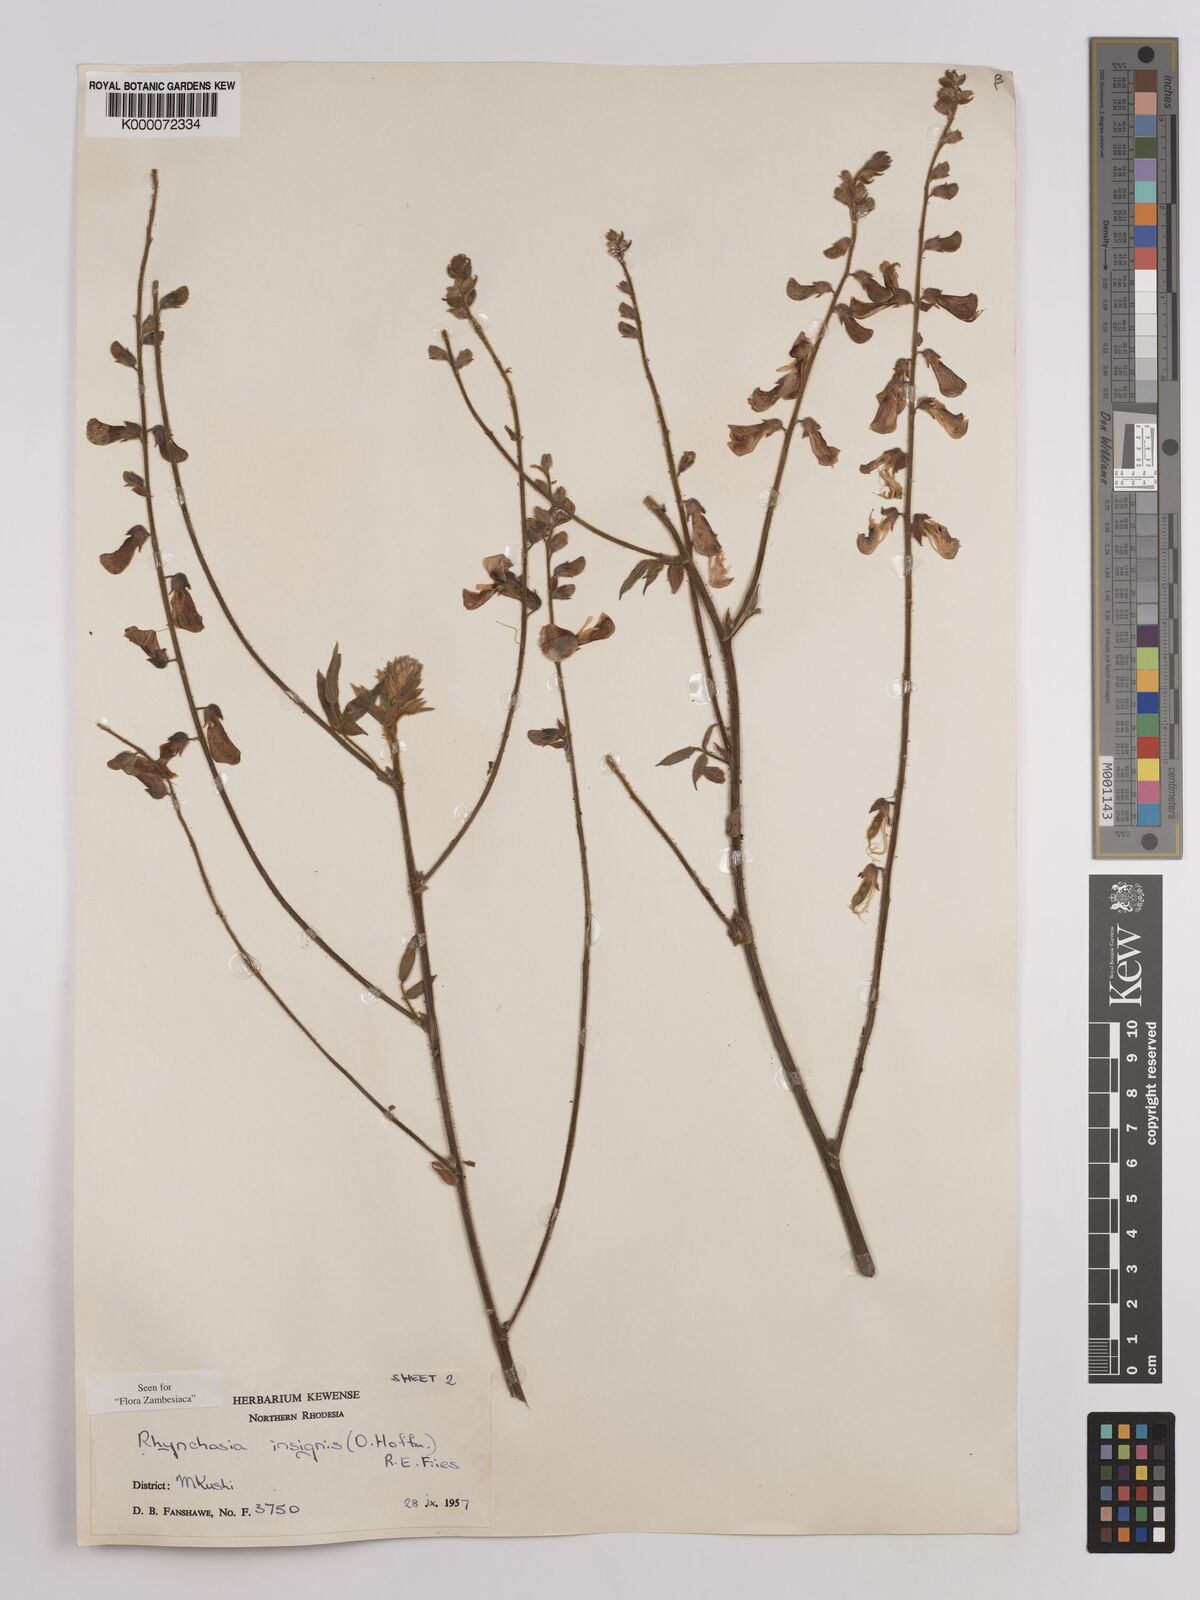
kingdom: Plantae
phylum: Tracheophyta
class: Magnoliopsida
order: Fabales
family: Fabaceae
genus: Rhynchosia
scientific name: Rhynchosia insignis
